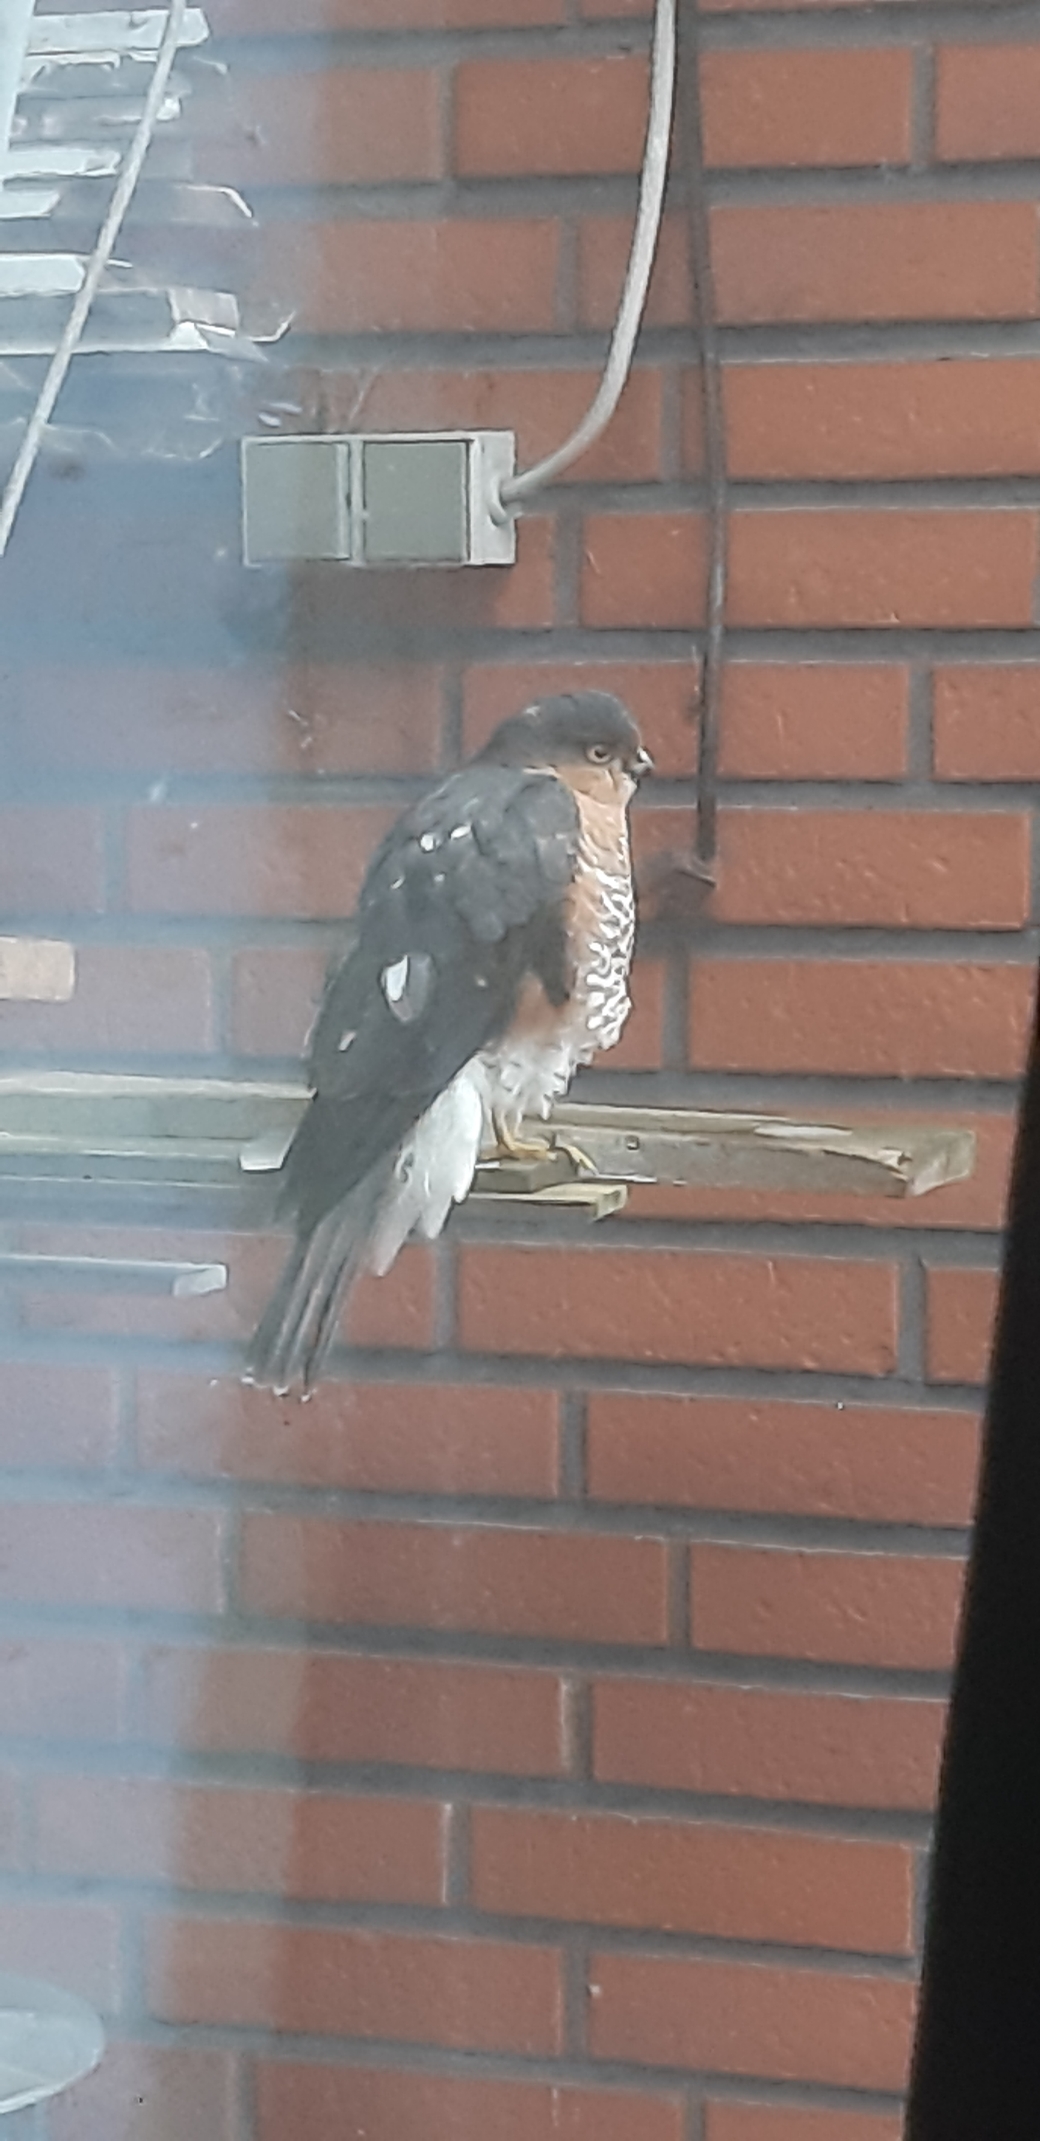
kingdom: Animalia
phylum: Chordata
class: Aves
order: Accipitriformes
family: Accipitridae
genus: Accipiter
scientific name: Accipiter nisus
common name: Spurvehøg
